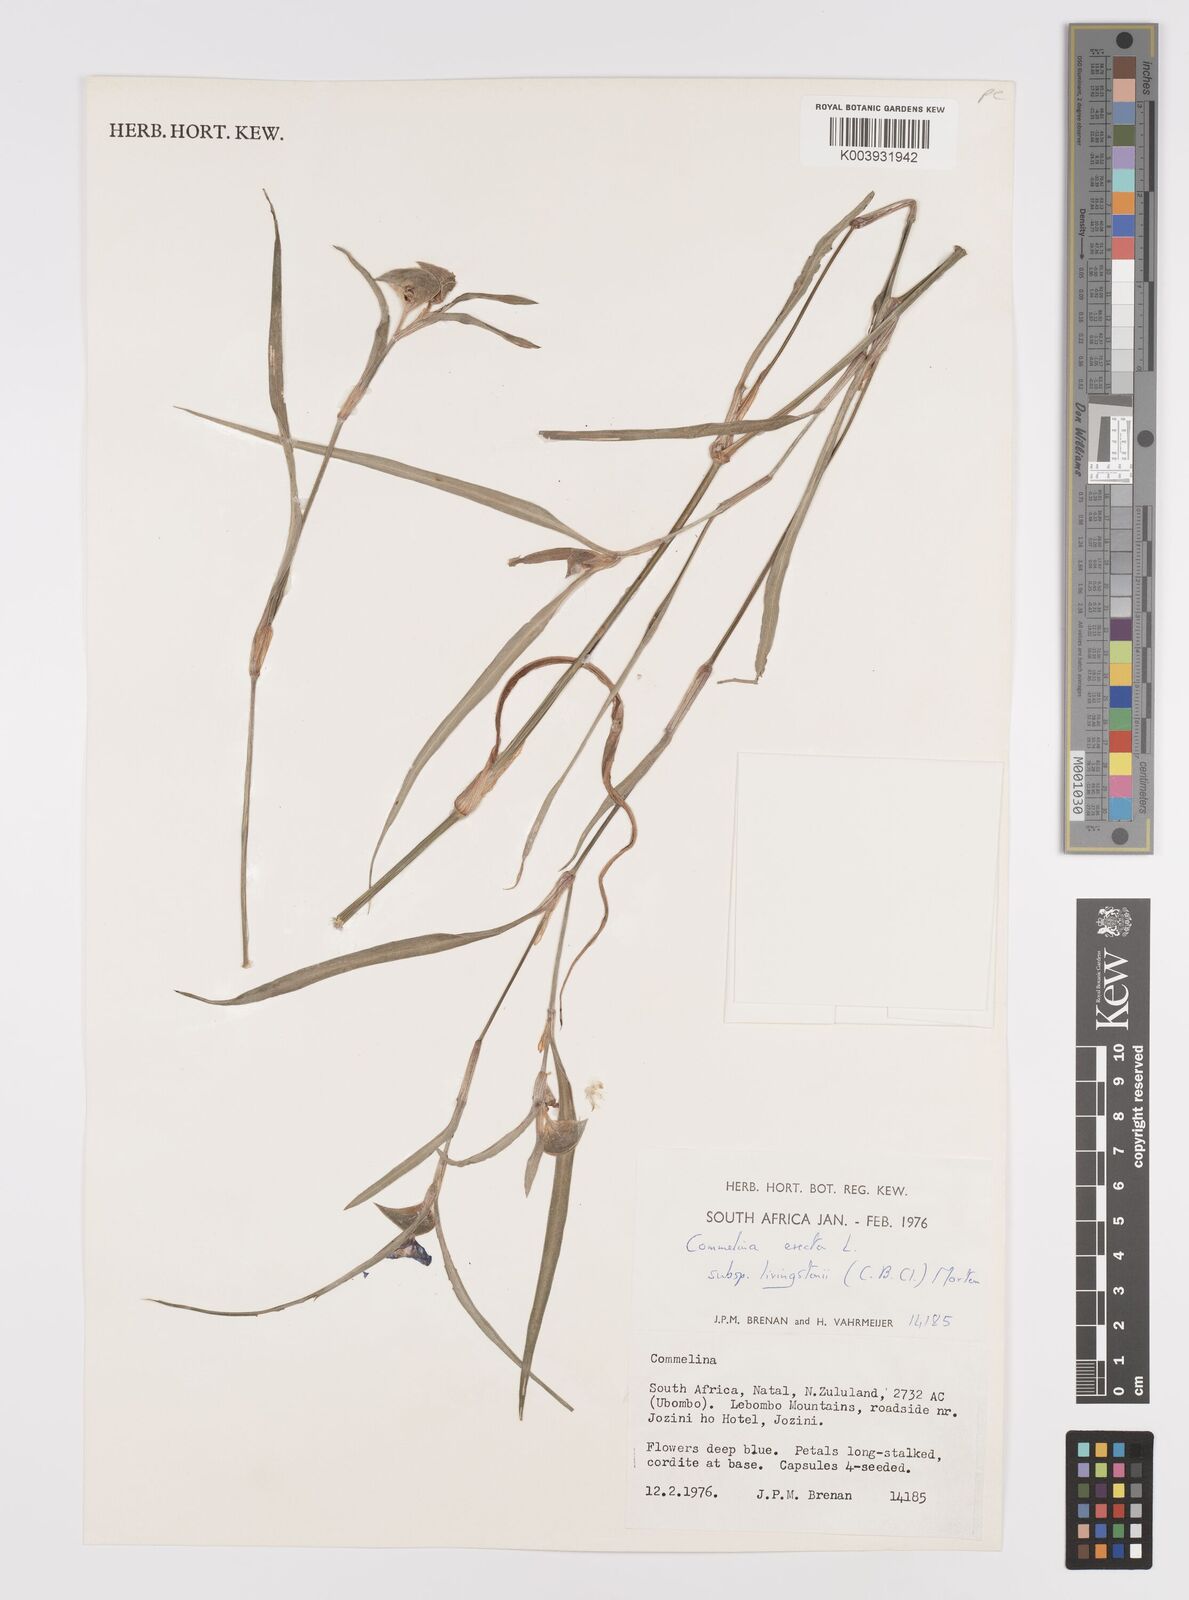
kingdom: Plantae
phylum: Tracheophyta
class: Liliopsida
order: Commelinales
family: Commelinaceae
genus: Commelina
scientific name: Commelina erecta
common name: Blousel blommetjie
